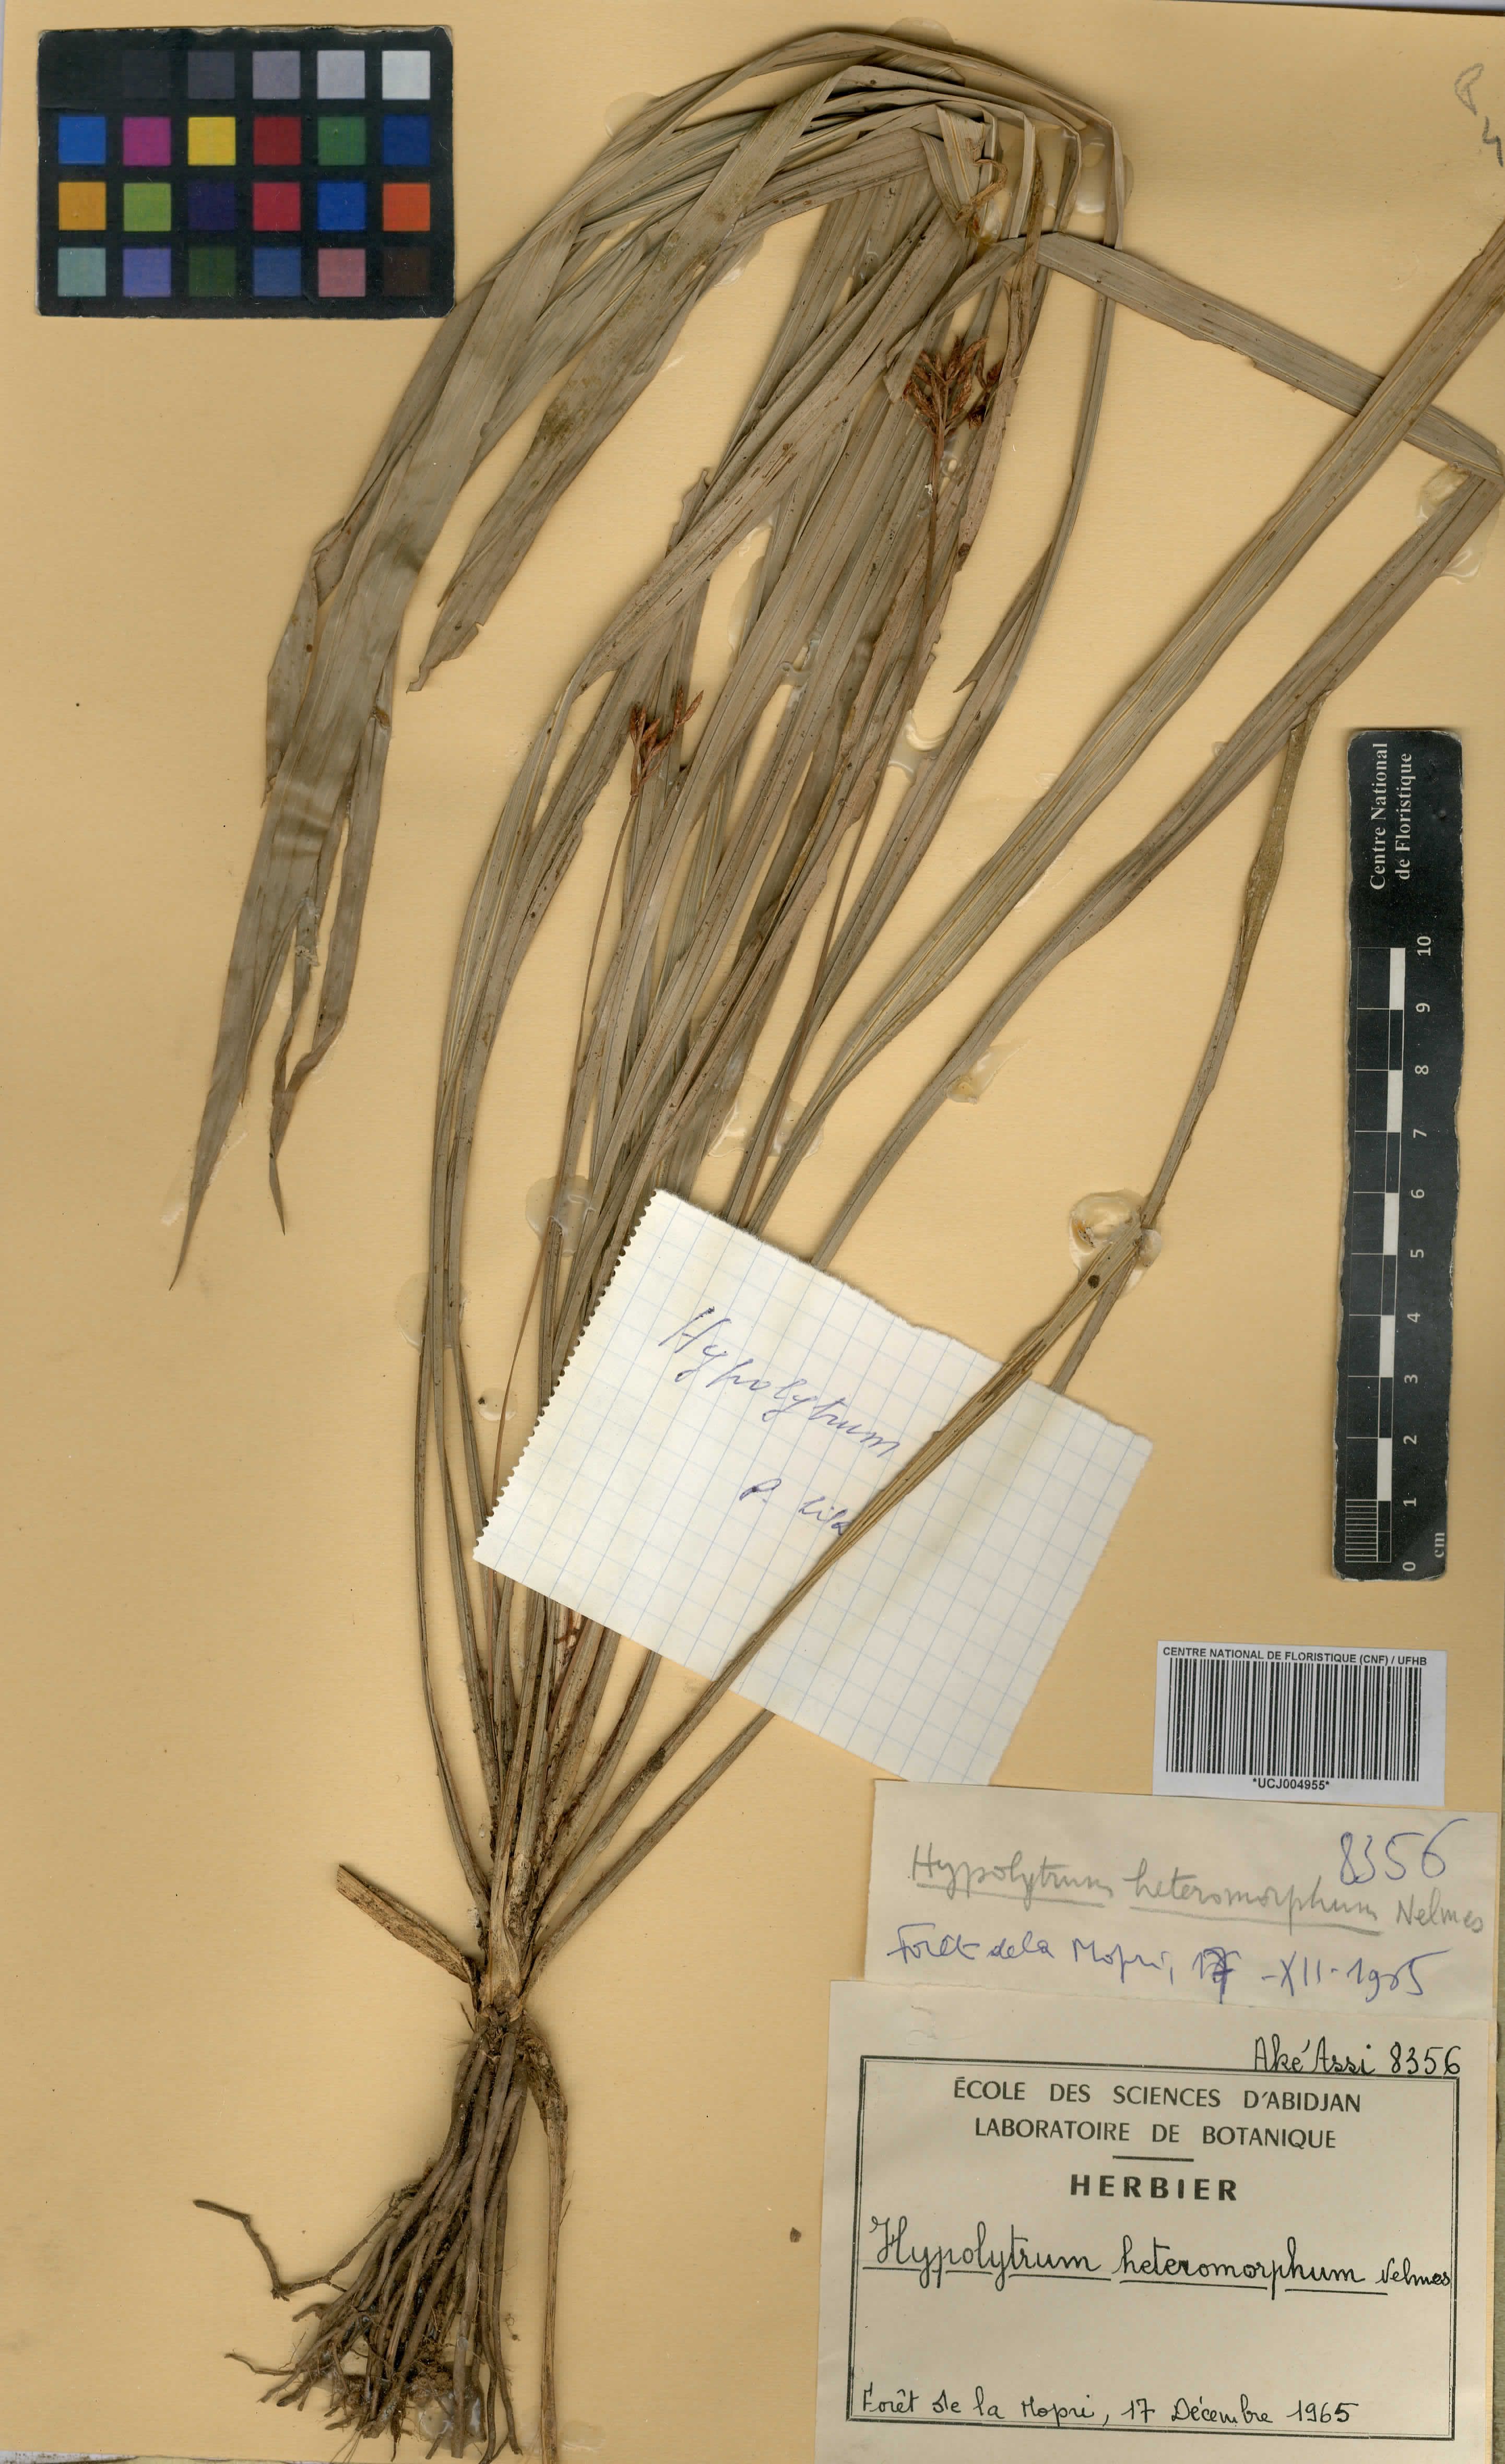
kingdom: Plantae
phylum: Tracheophyta
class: Liliopsida
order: Poales
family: Cyperaceae
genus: Hypolytrum
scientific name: Hypolytrum heteromorphum
